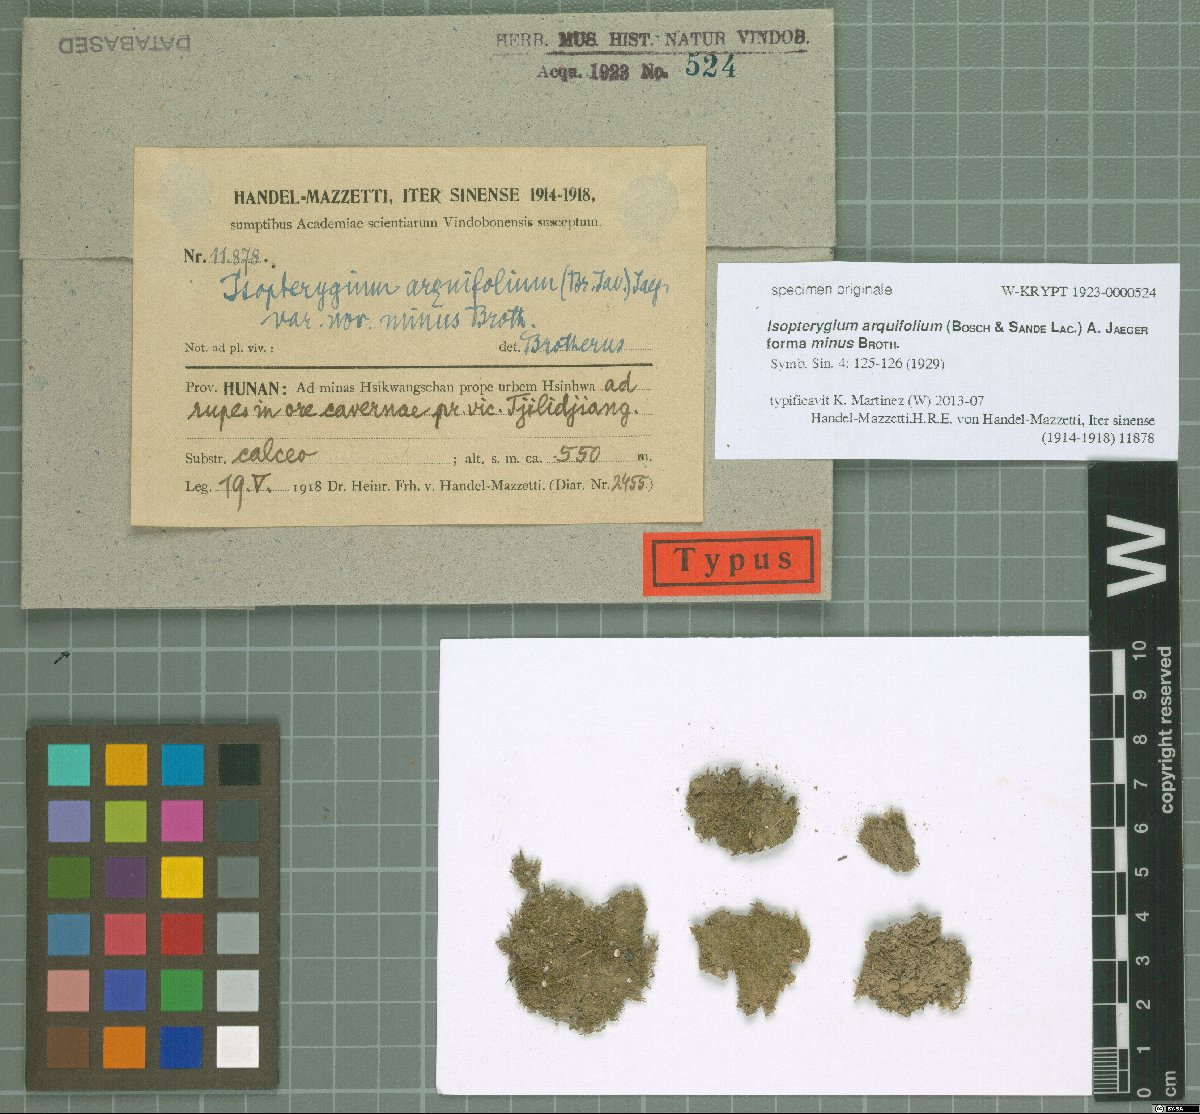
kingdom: Plantae
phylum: Bryophyta
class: Bryopsida
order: Hypnales
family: Plagiotheciaceae
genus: Pseudotaxiphyllum
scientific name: Pseudotaxiphyllum pohliicarpum
